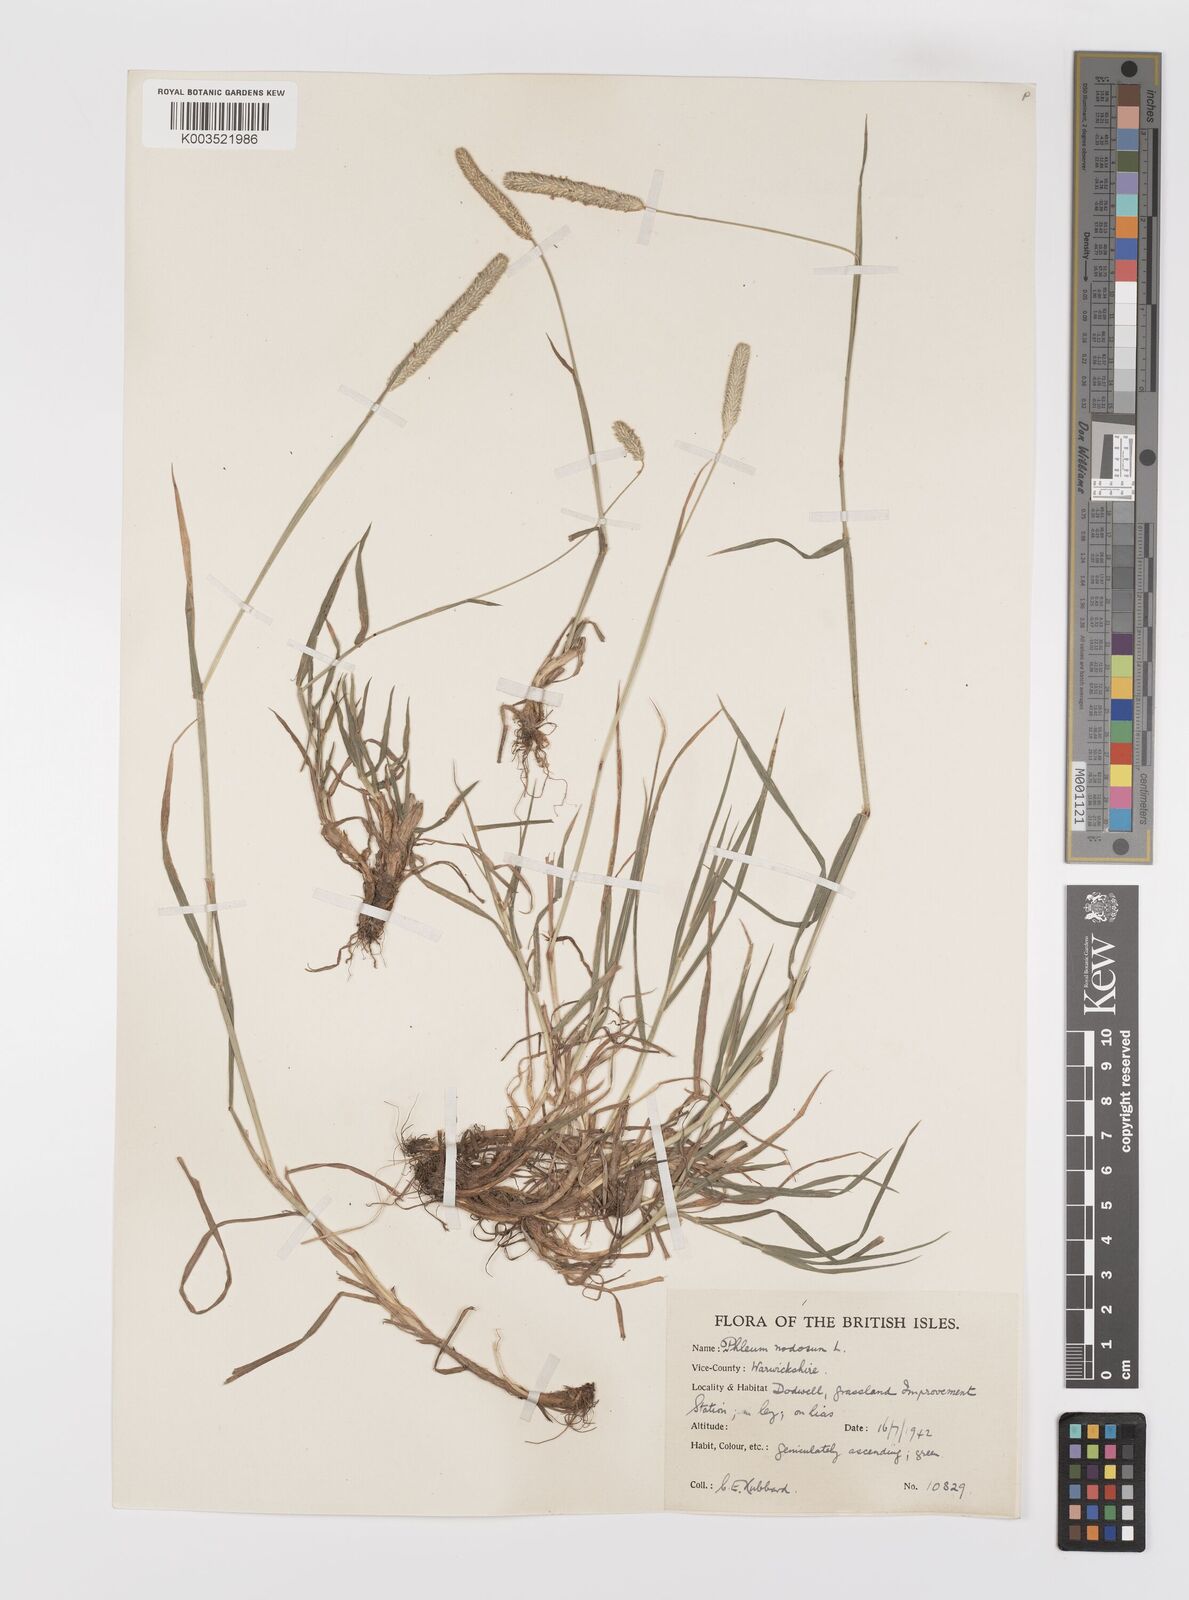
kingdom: Plantae
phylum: Tracheophyta
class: Liliopsida
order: Poales
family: Poaceae
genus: Phleum
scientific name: Phleum bertolonii
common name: Smaller cat's-tail
